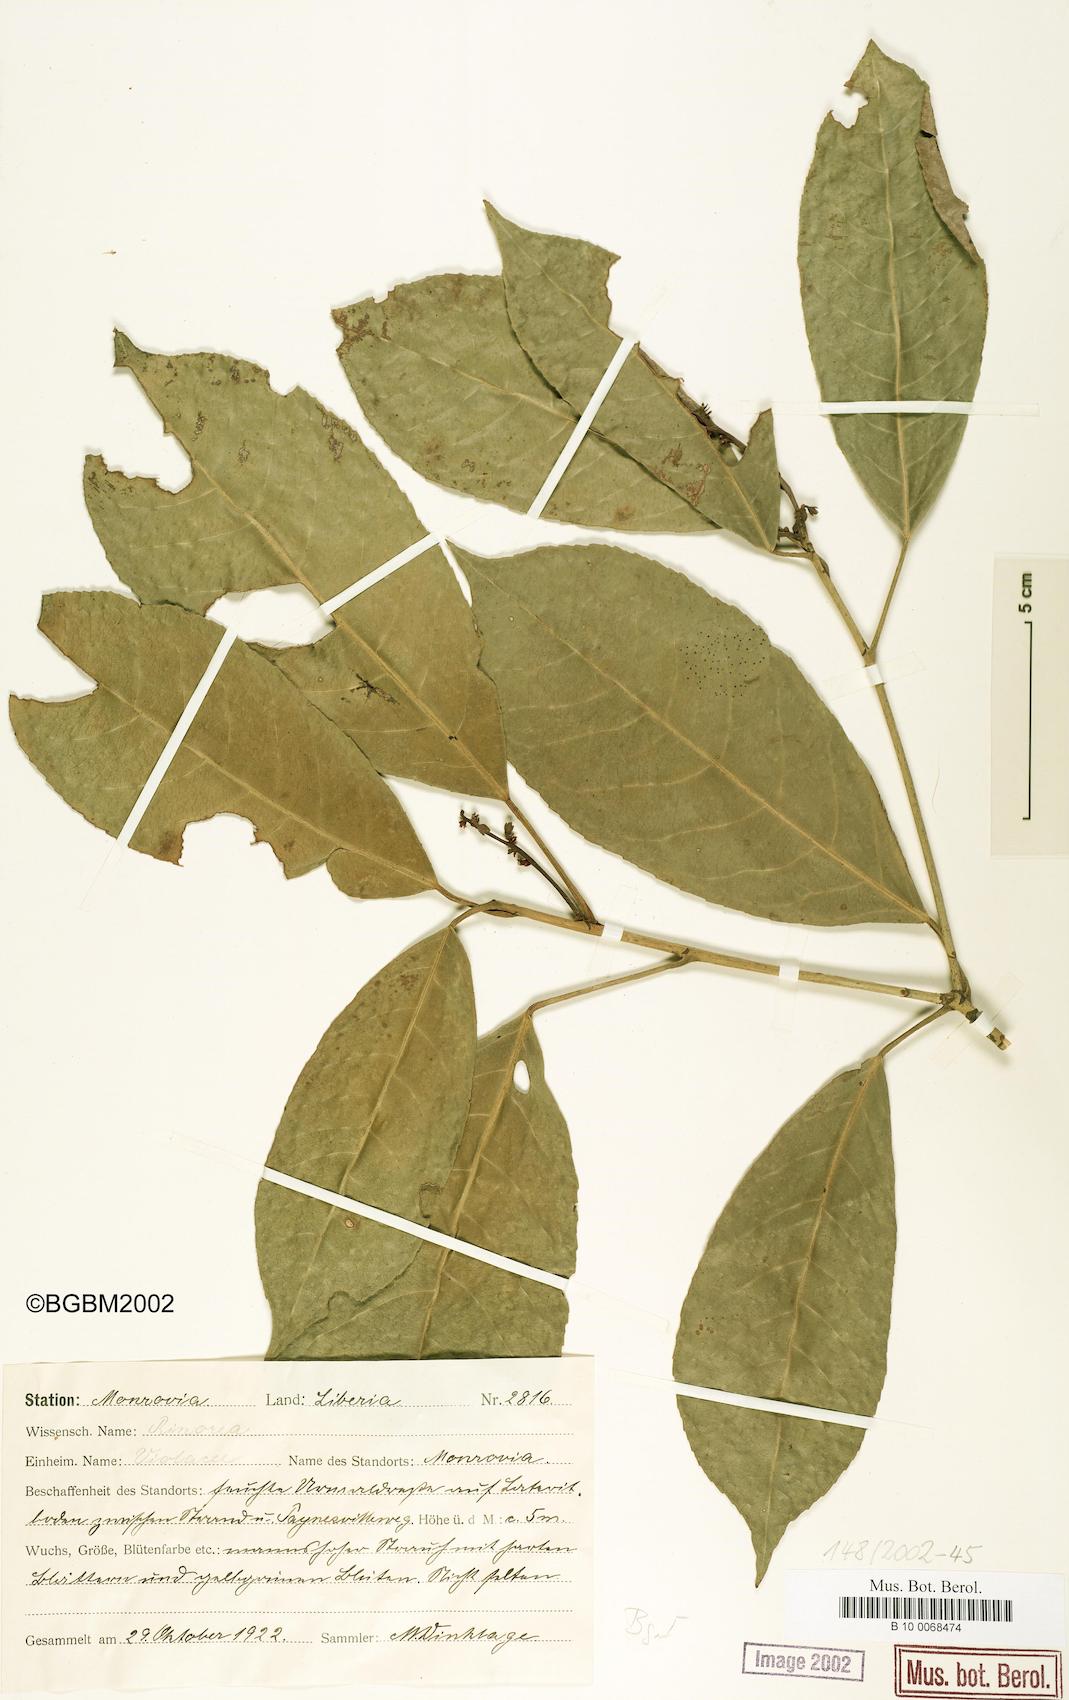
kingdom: Plantae
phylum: Tracheophyta
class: Magnoliopsida
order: Malpighiales
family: Violaceae
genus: Rinorea
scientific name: Rinorea
